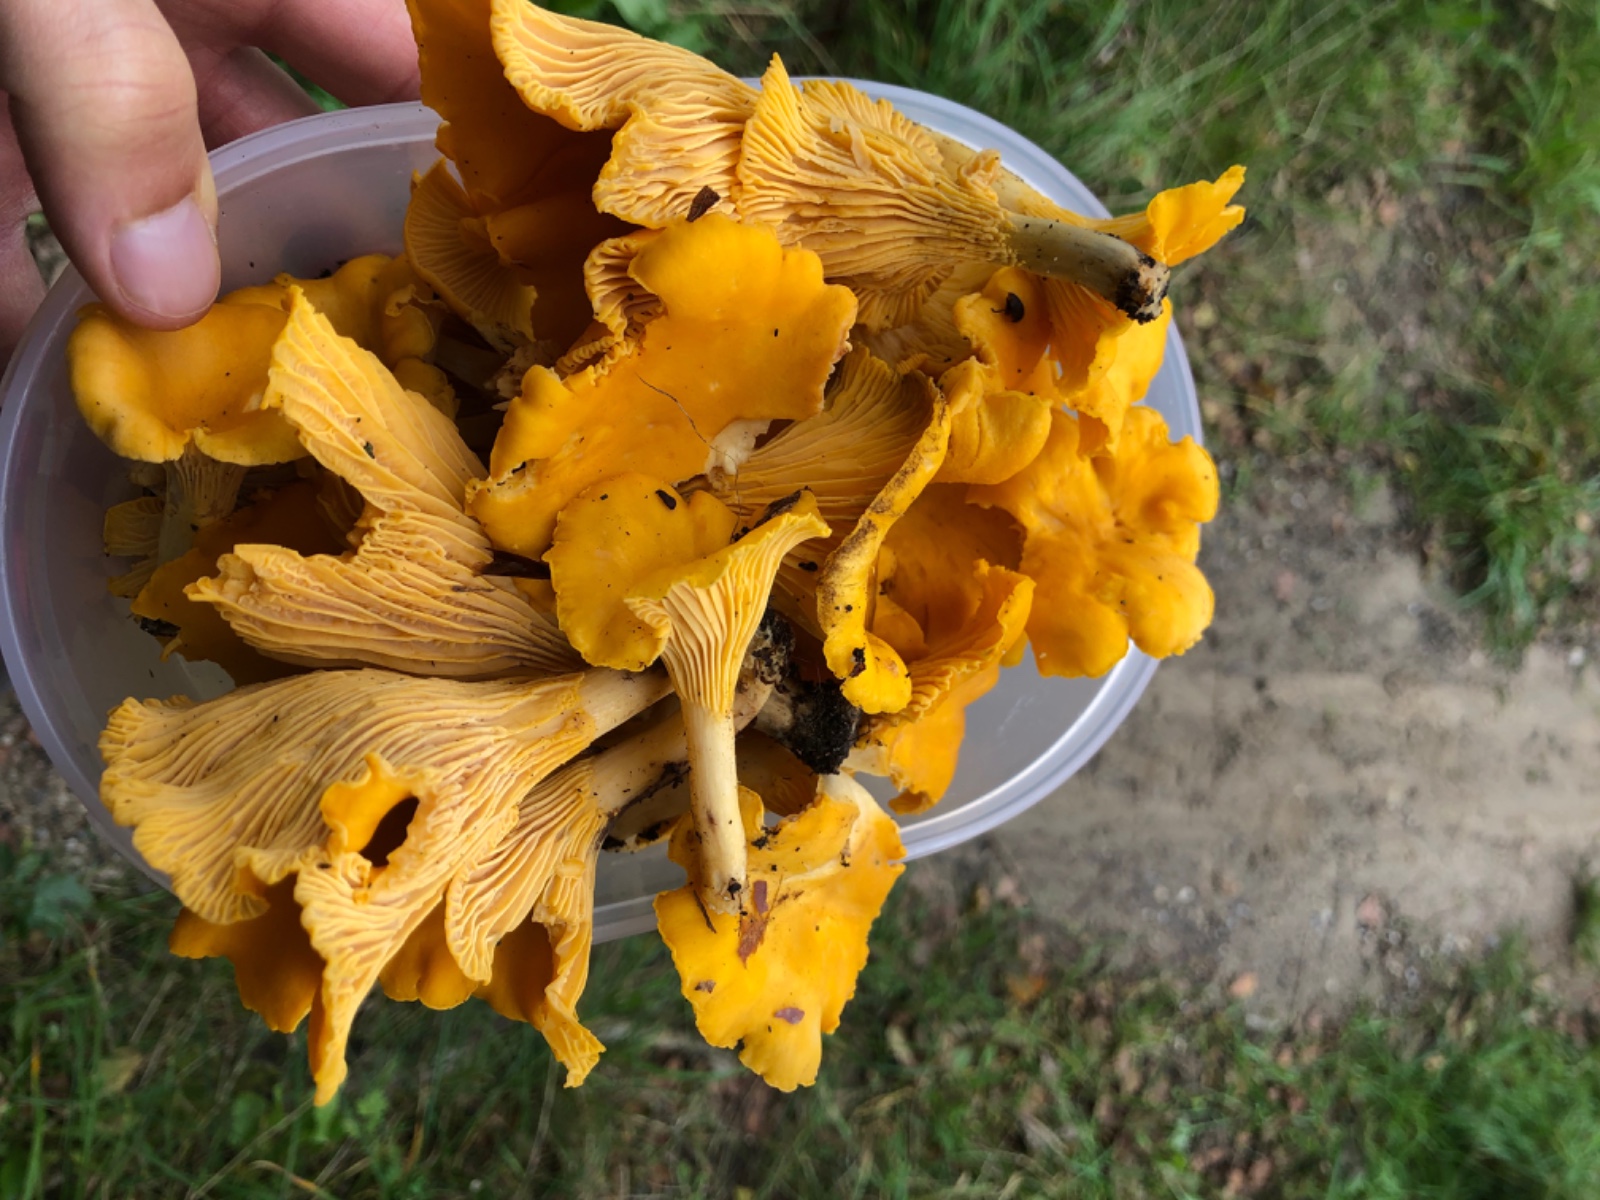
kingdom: Fungi
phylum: Basidiomycota
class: Agaricomycetes
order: Cantharellales
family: Hydnaceae
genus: Cantharellus
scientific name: Cantharellus cibarius
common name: almindelig kantarel
